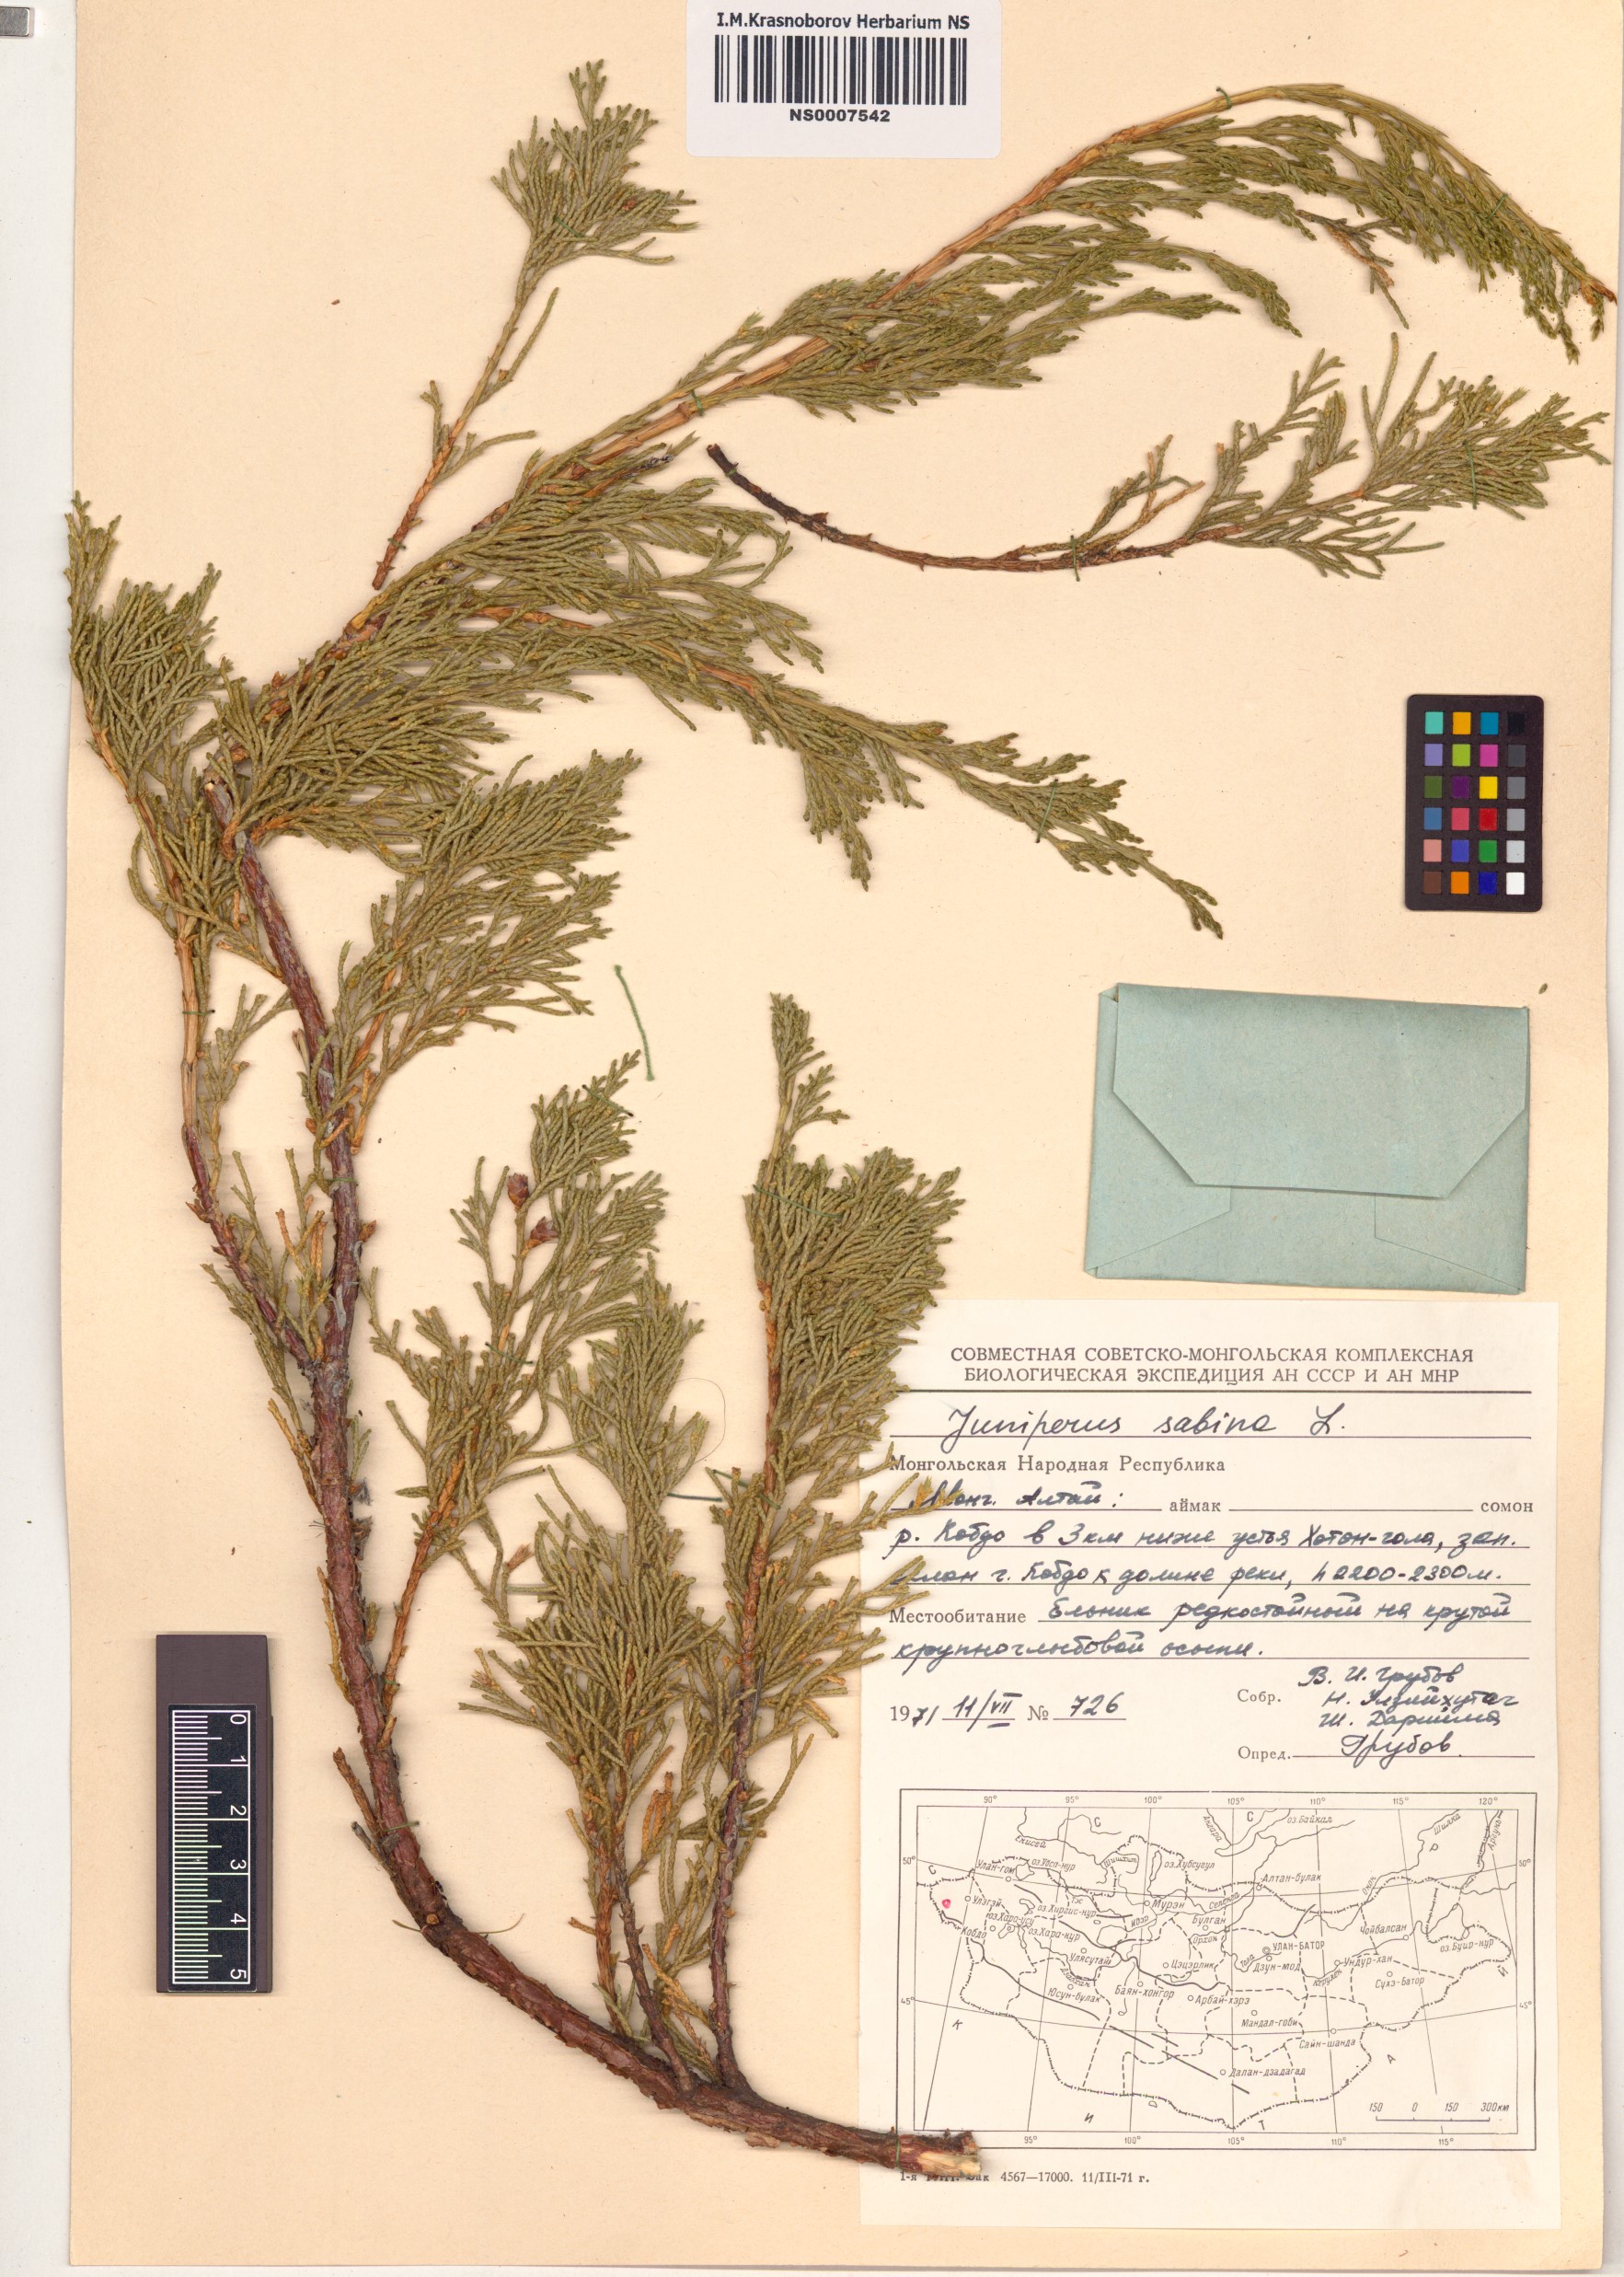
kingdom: Plantae
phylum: Tracheophyta
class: Pinopsida
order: Pinales
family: Cupressaceae
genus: Juniperus
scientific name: Juniperus sabina
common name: Savin
